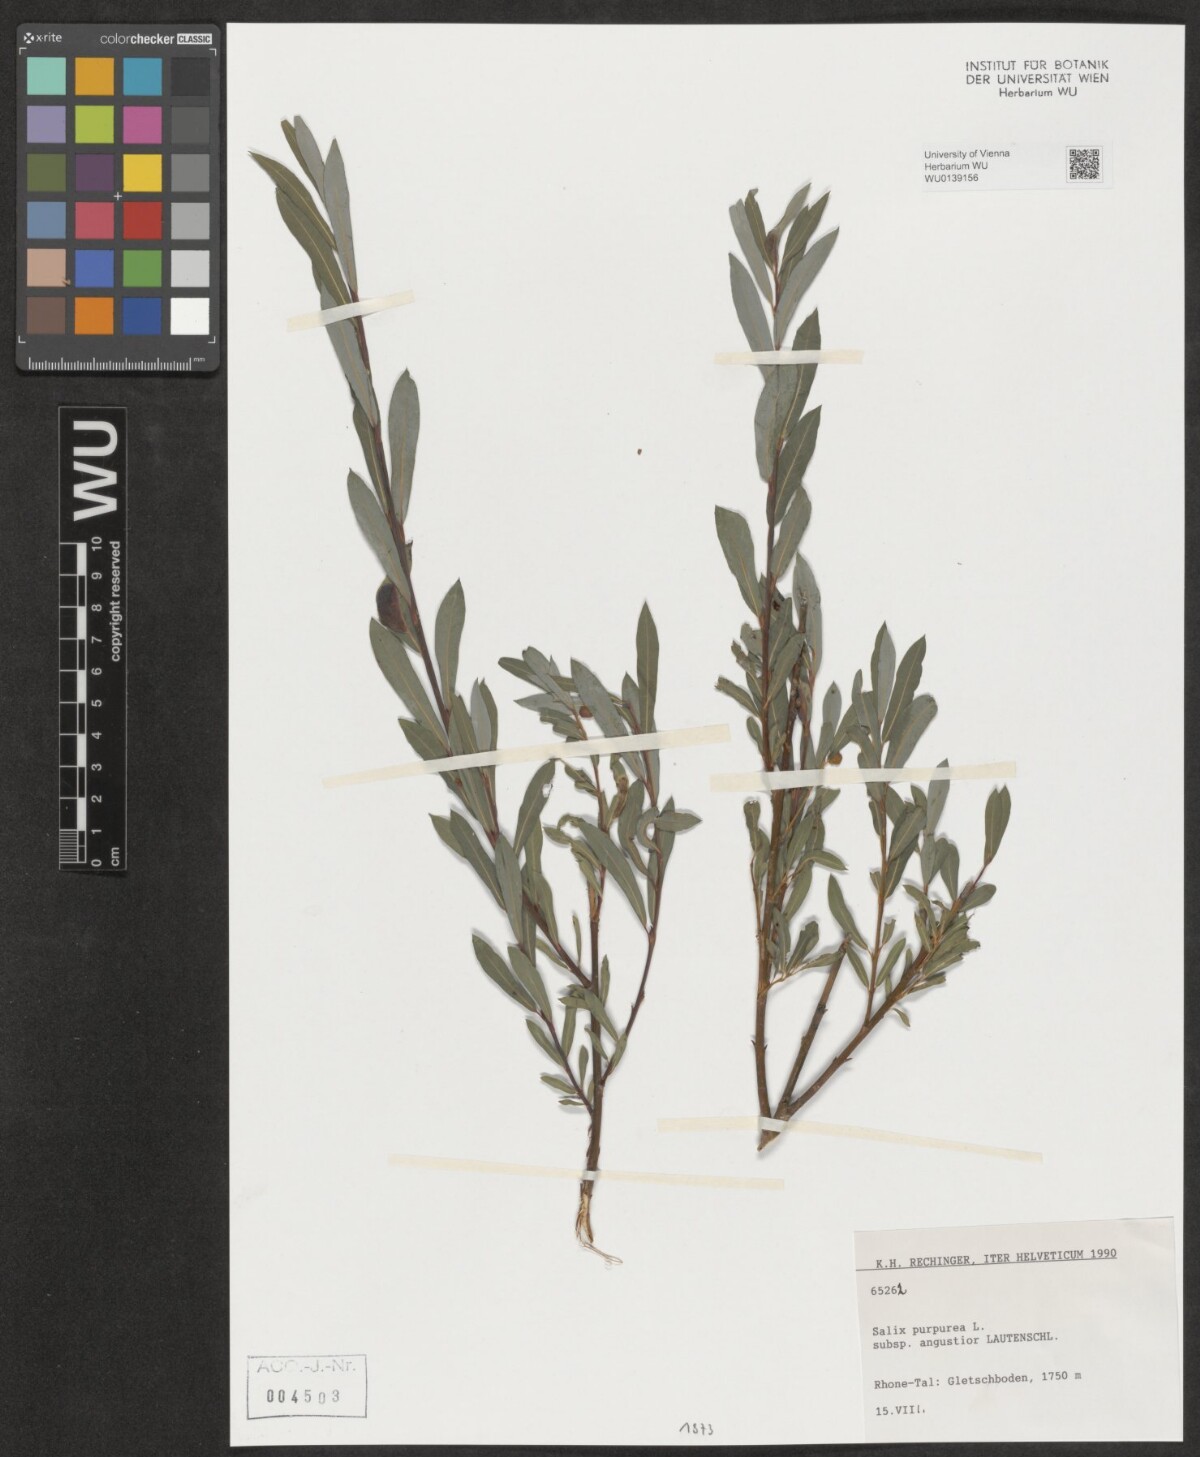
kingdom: Plantae
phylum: Tracheophyta
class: Magnoliopsida
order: Malpighiales
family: Salicaceae
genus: Salix
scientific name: Salix purpurea
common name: Purple willow
